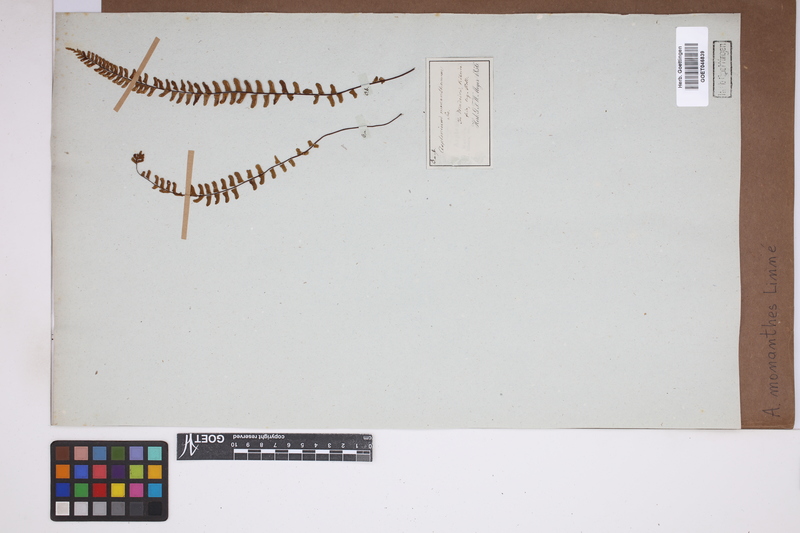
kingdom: Plantae
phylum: Tracheophyta
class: Polypodiopsida
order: Polypodiales
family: Aspleniaceae
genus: Asplenium
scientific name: Asplenium monanthes
